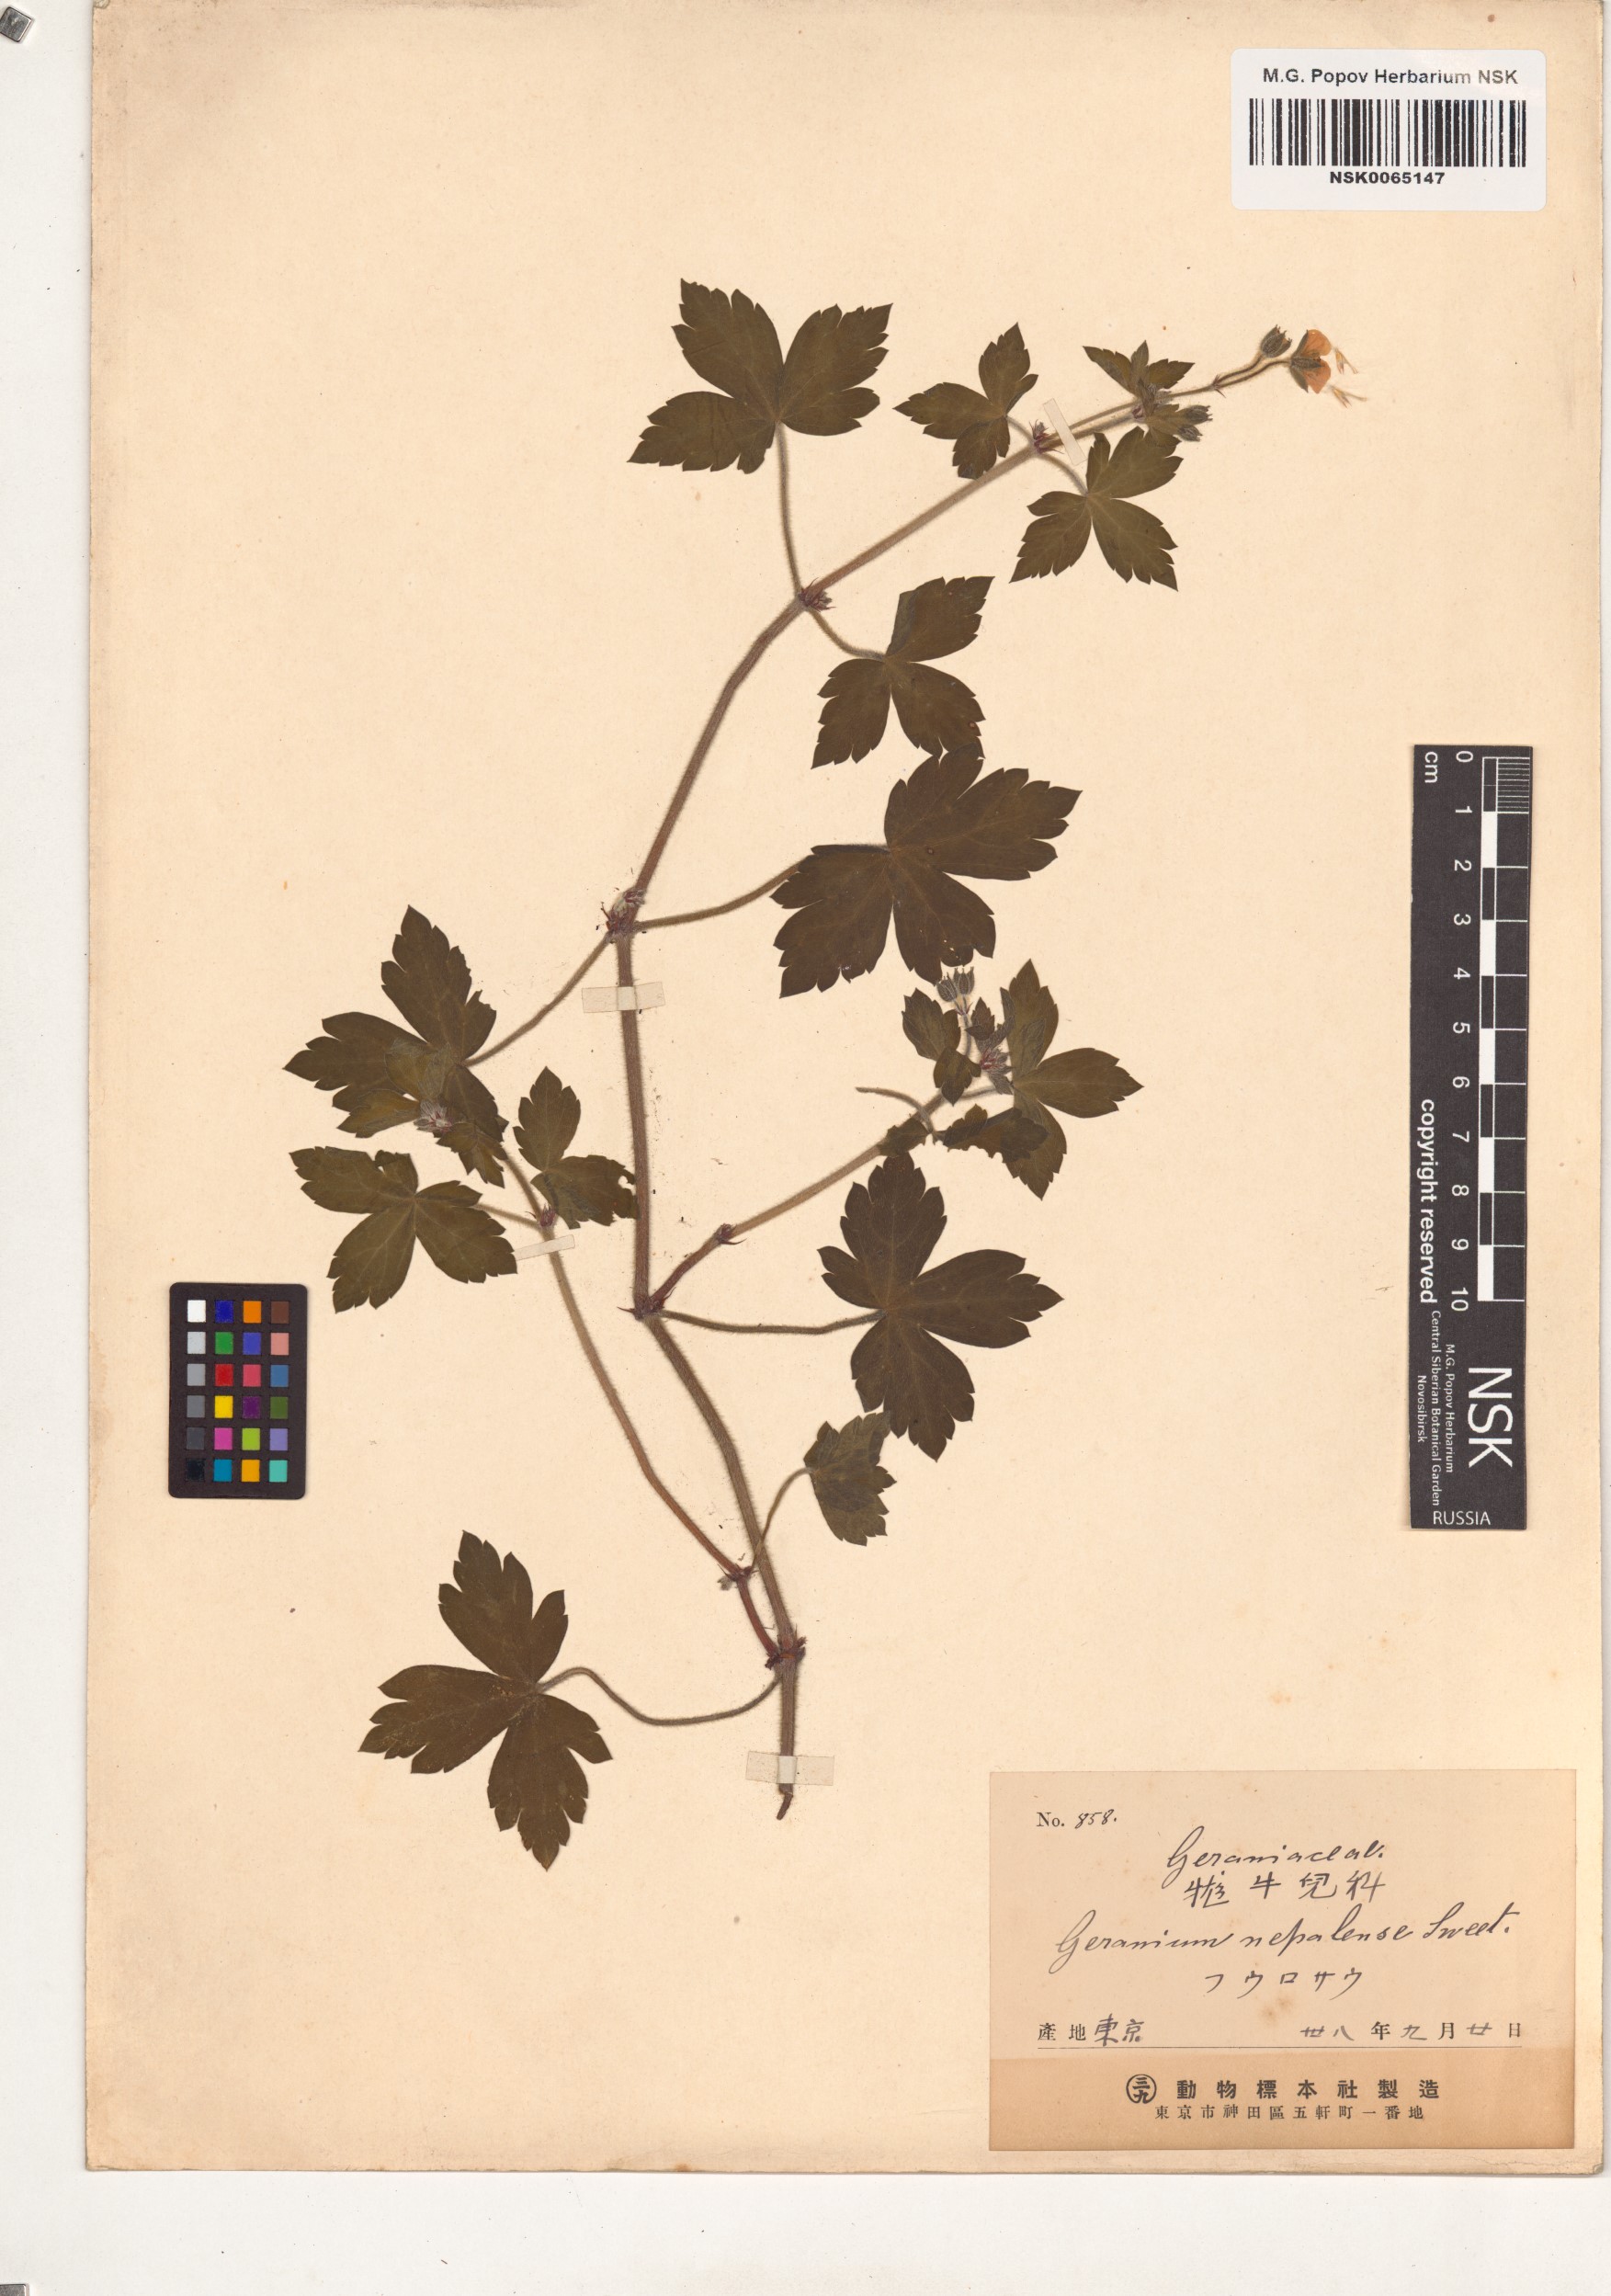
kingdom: Plantae
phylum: Tracheophyta
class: Magnoliopsida
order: Geraniales
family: Geraniaceae
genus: Geranium
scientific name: Geranium nepalense
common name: Nepalese crane's-bill
